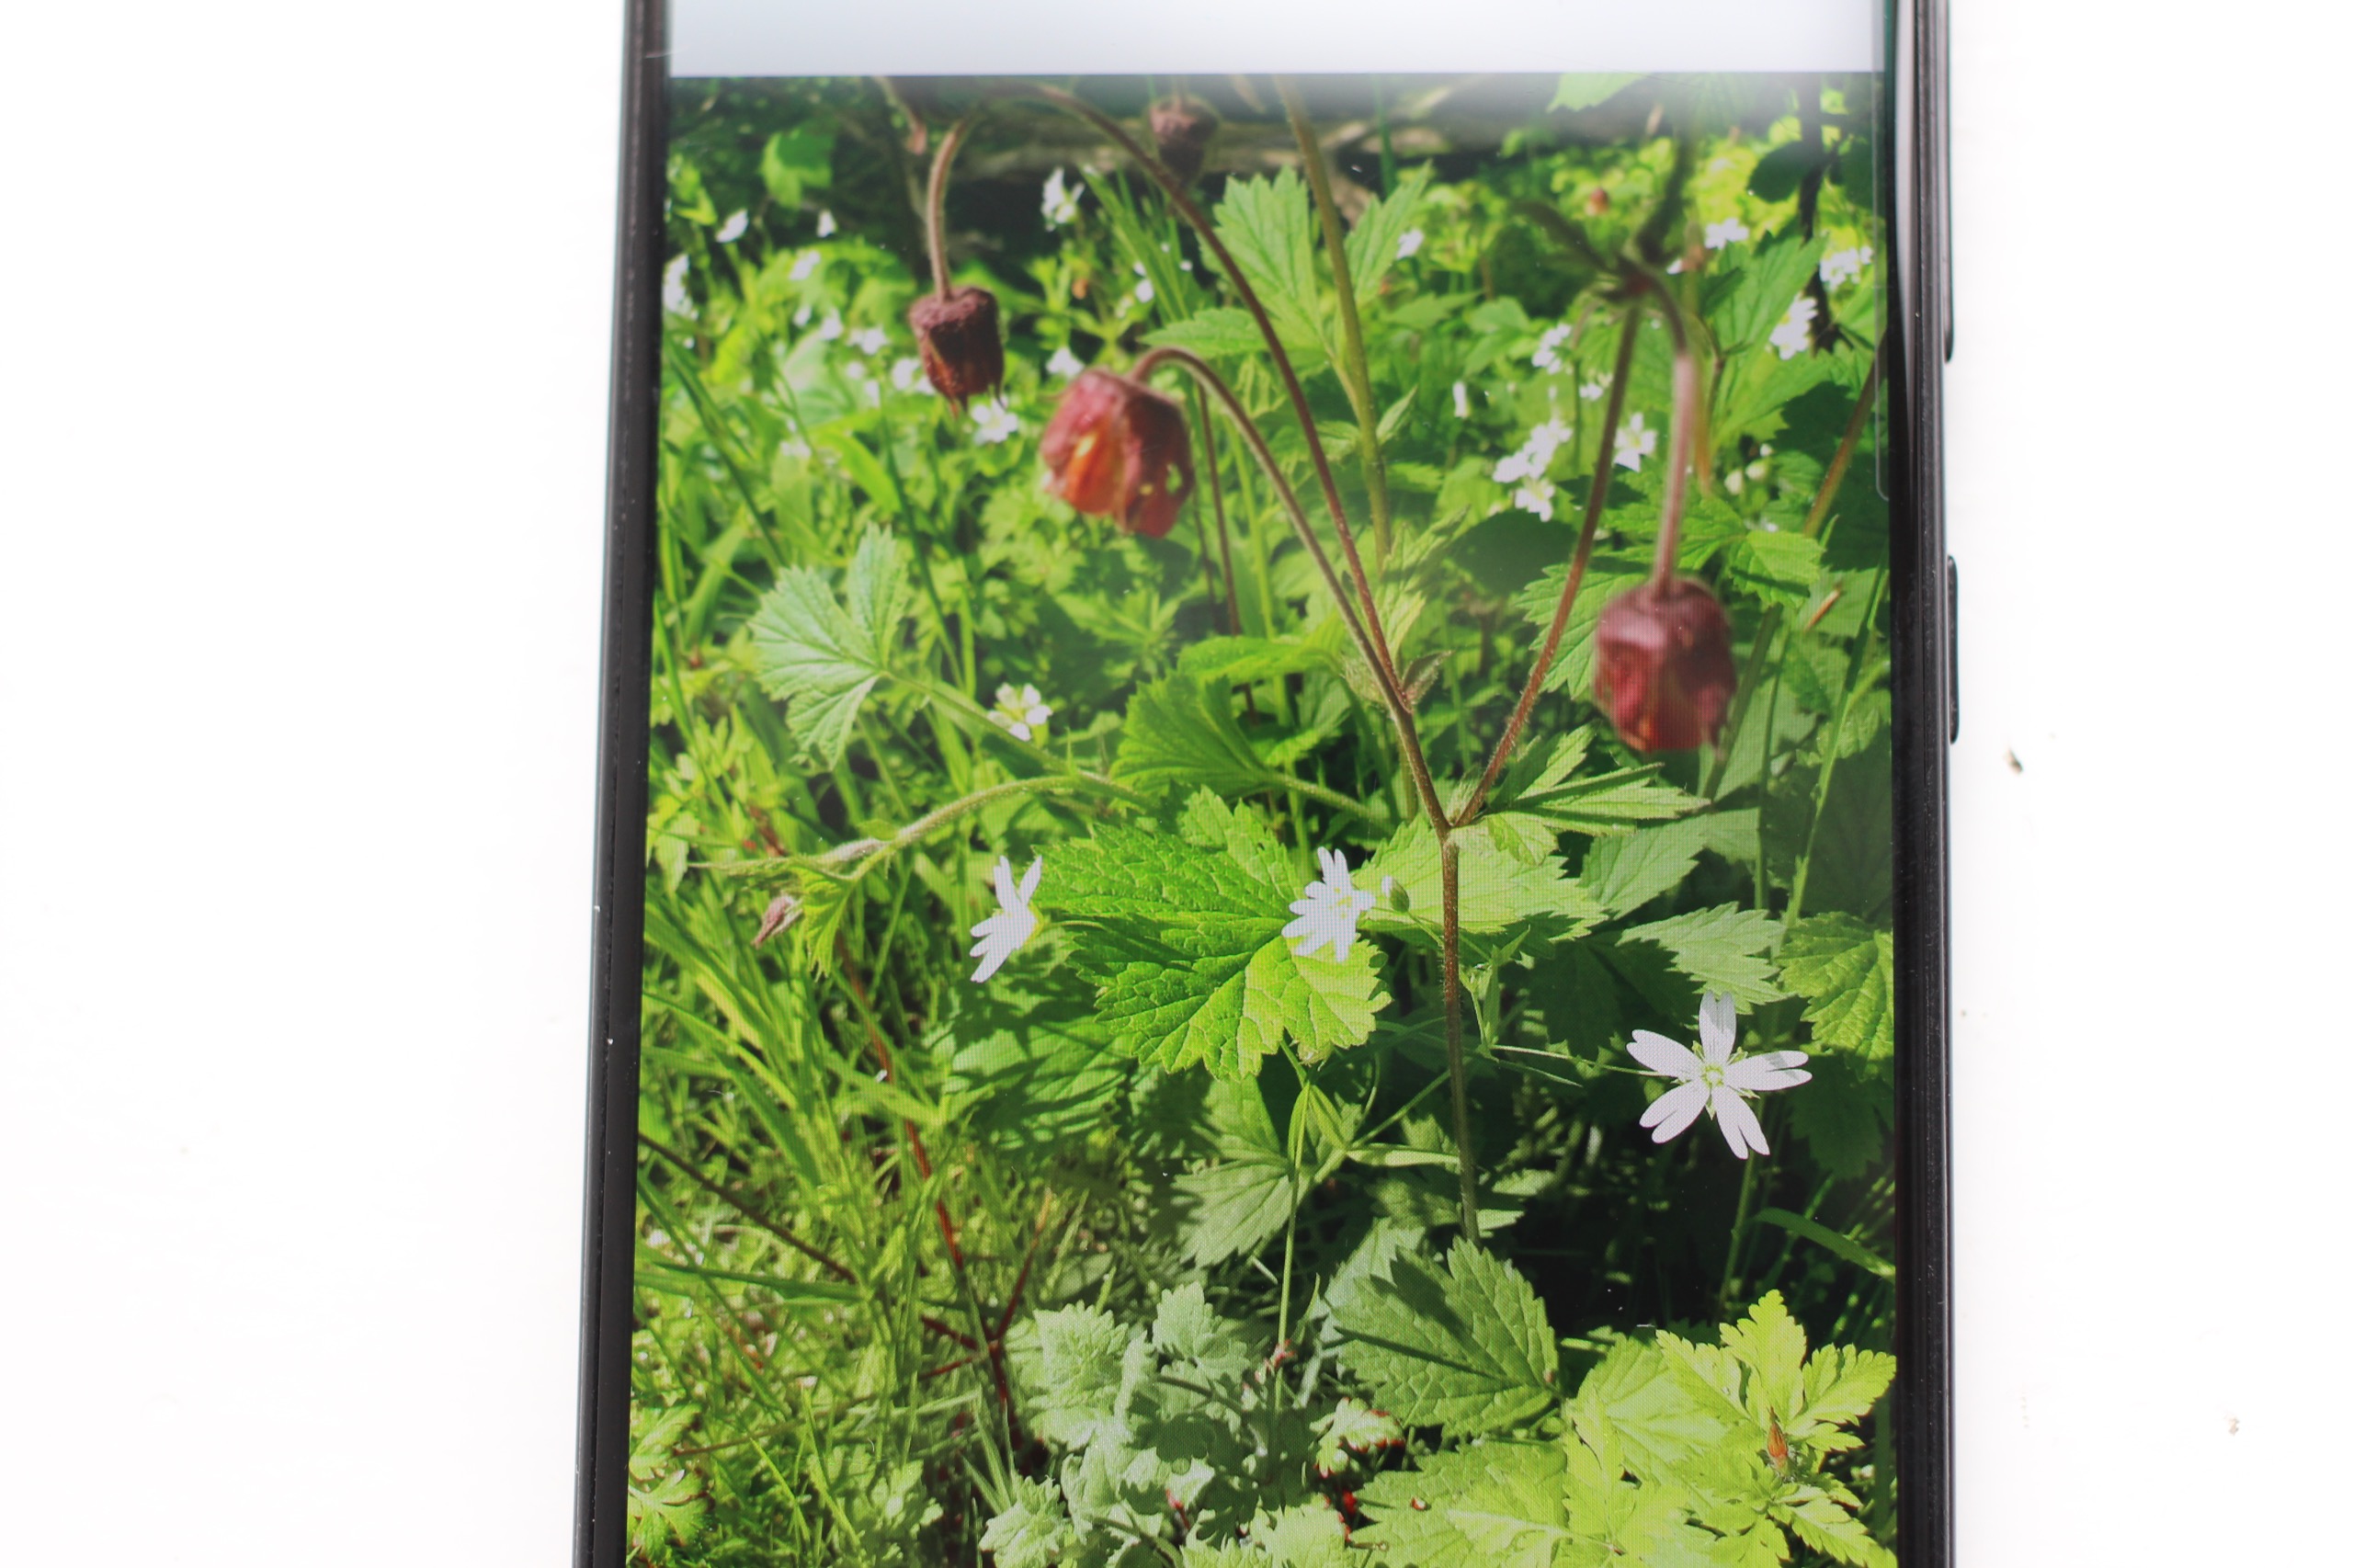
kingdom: Plantae
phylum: Tracheophyta
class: Magnoliopsida
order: Rosales
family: Rosaceae
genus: Geum
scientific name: Geum rivale
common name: Eng-nellikerod
